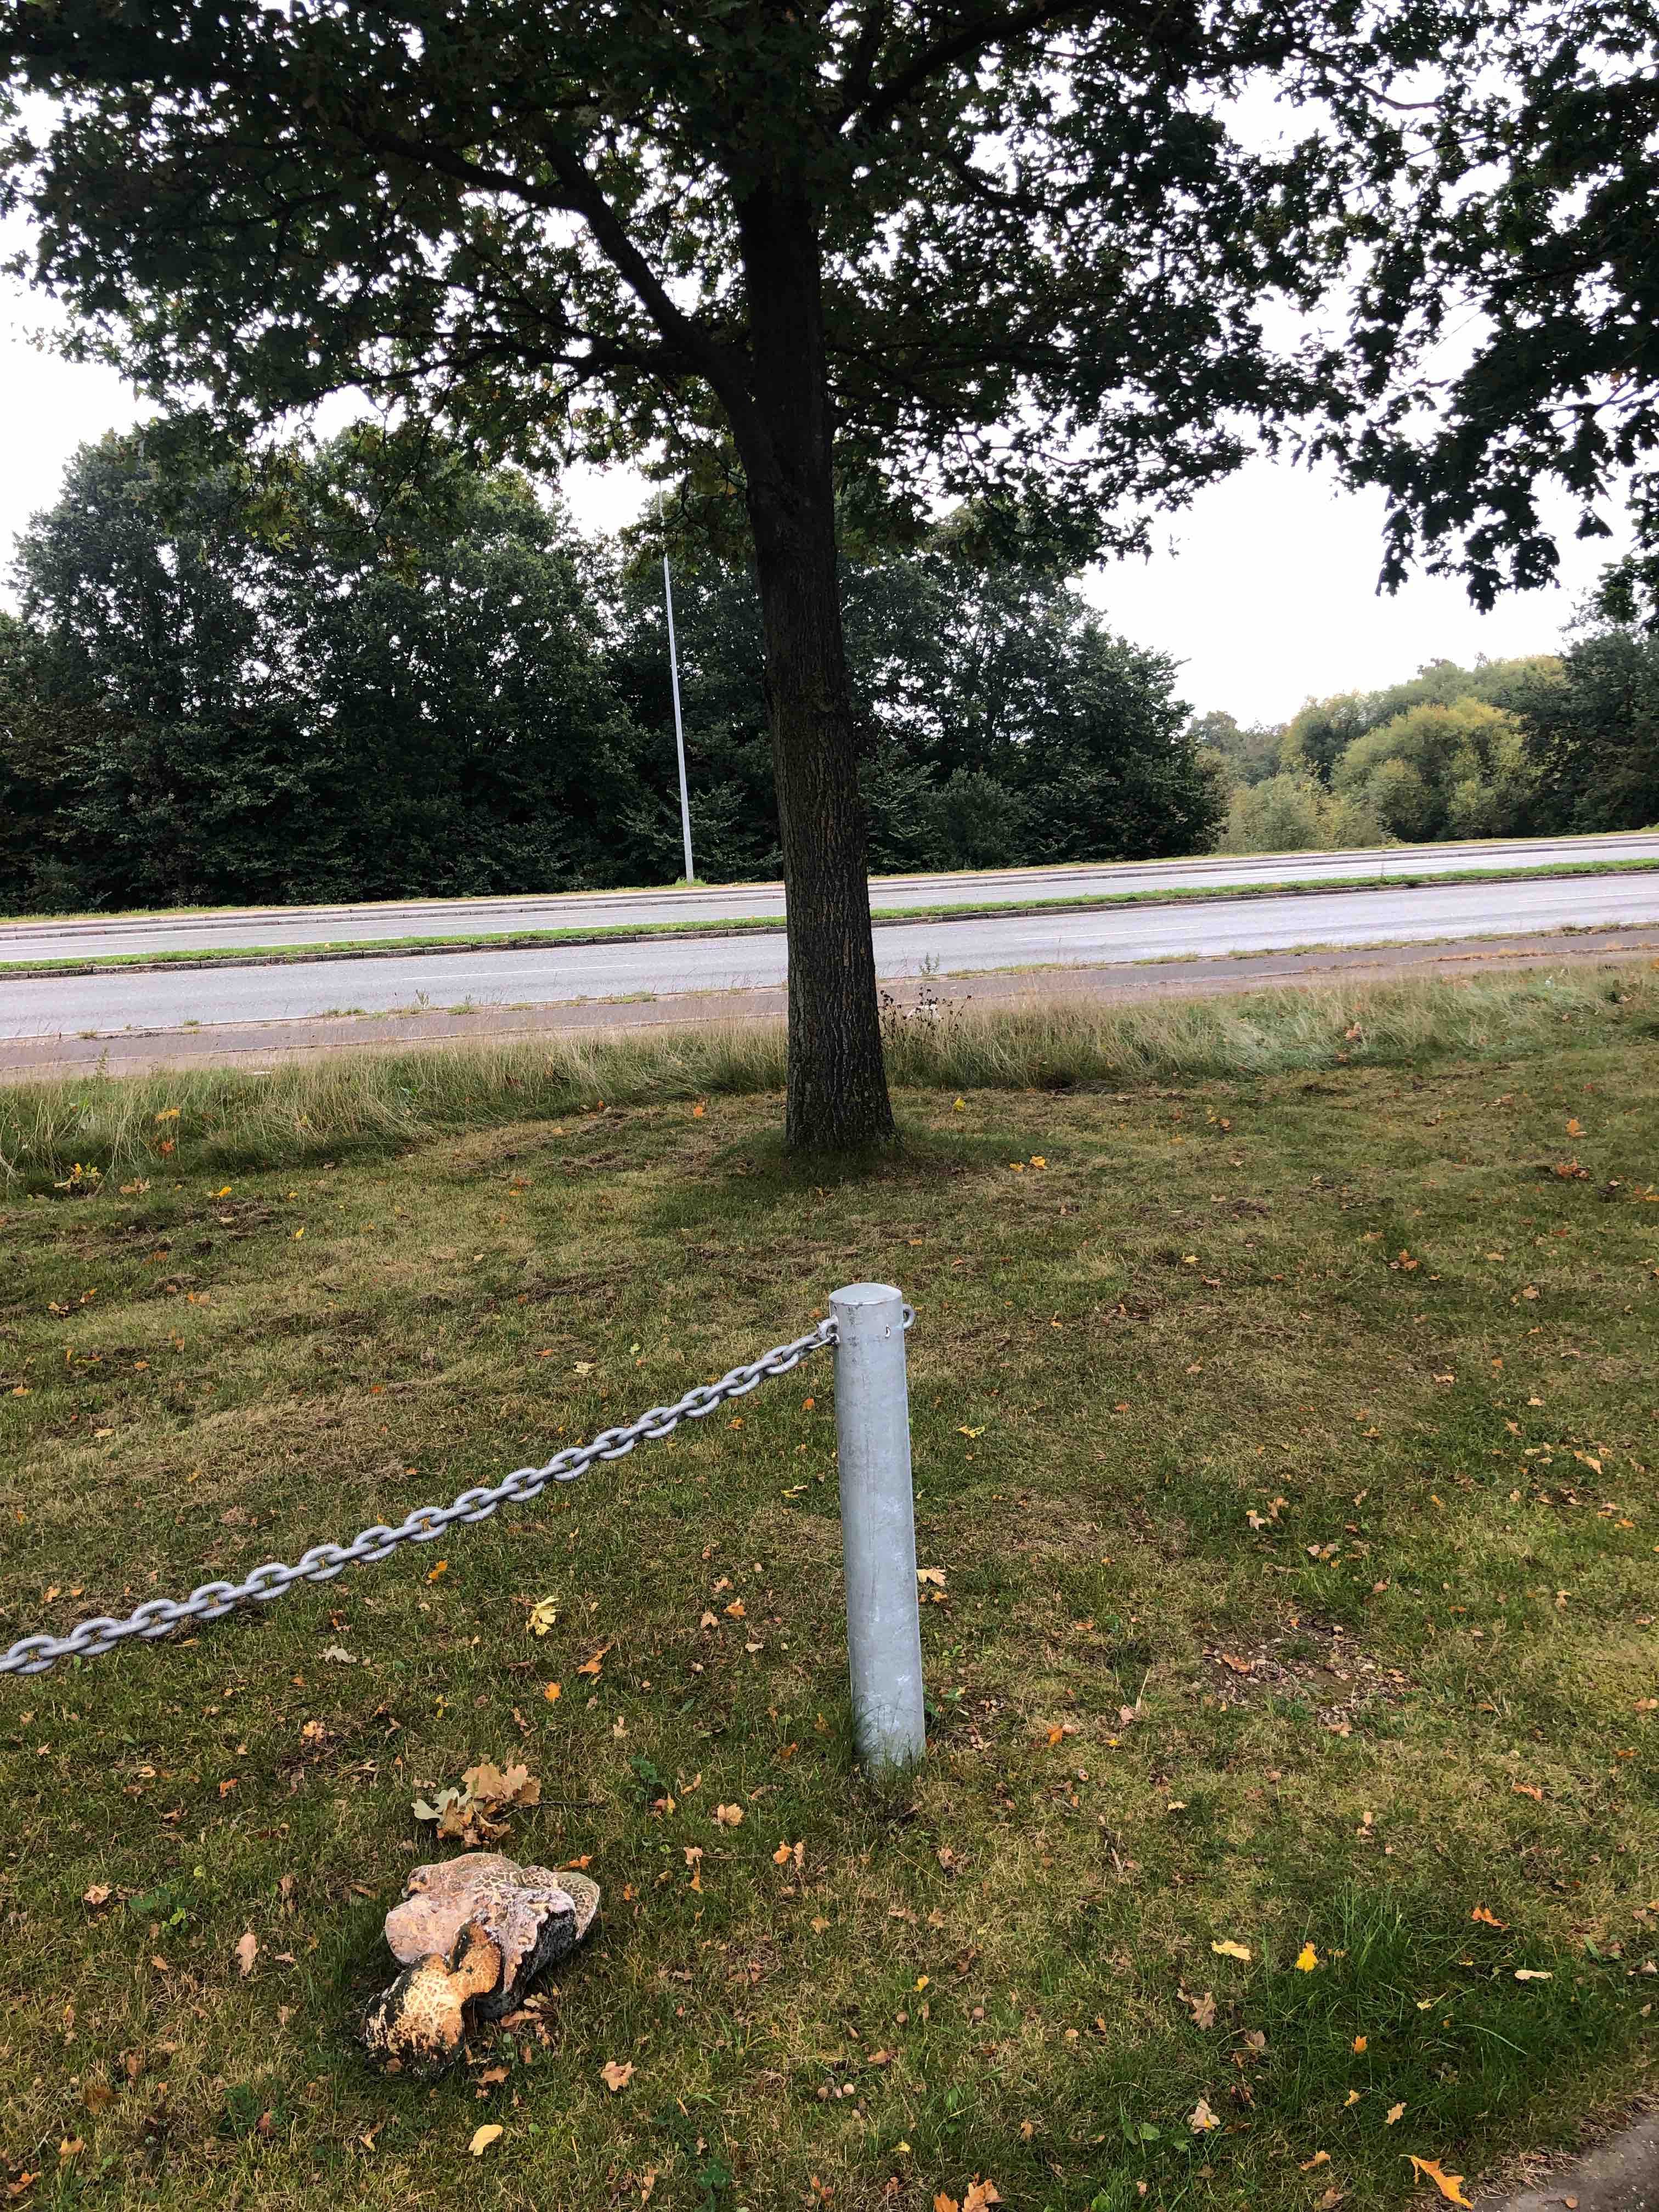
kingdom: Fungi
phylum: Basidiomycota
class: Agaricomycetes
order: Boletales
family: Boletaceae
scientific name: Boletaceae
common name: rørhatfamilien
